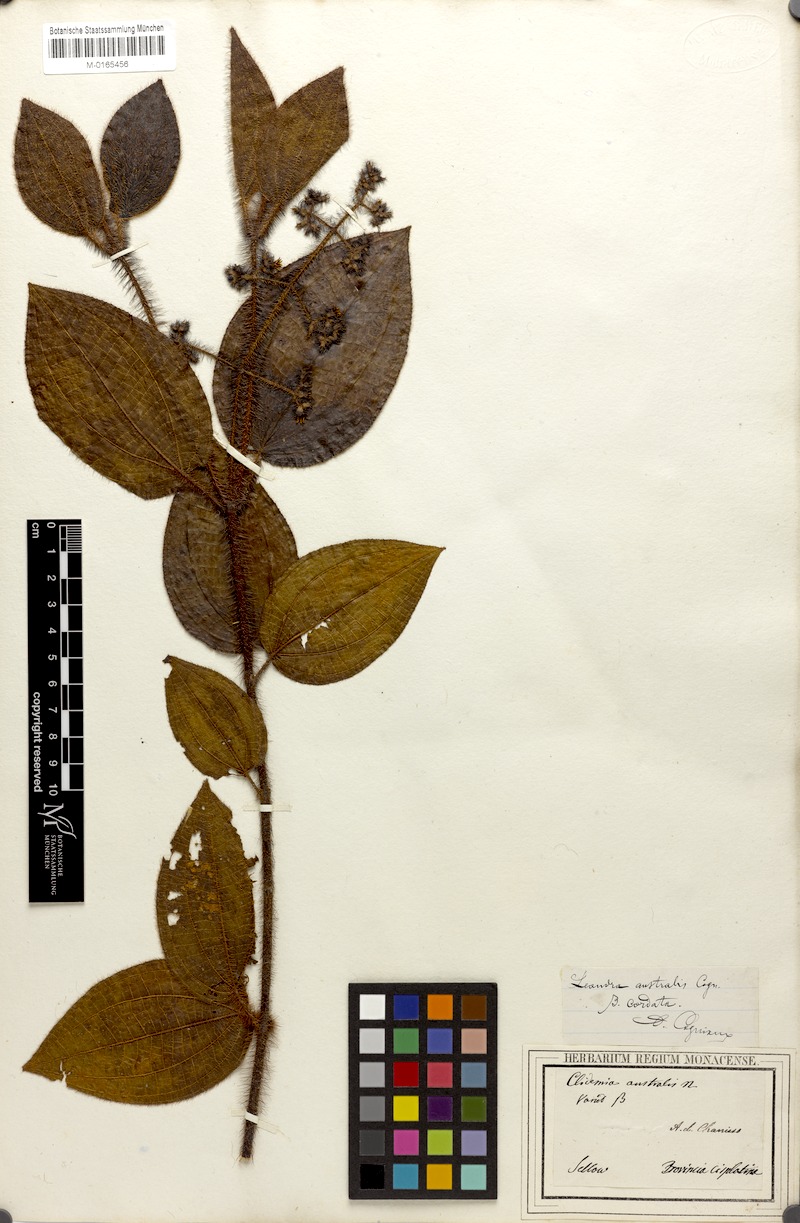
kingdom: Plantae
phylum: Tracheophyta
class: Magnoliopsida
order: Myrtales
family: Melastomataceae
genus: Miconia
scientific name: Miconia australis
